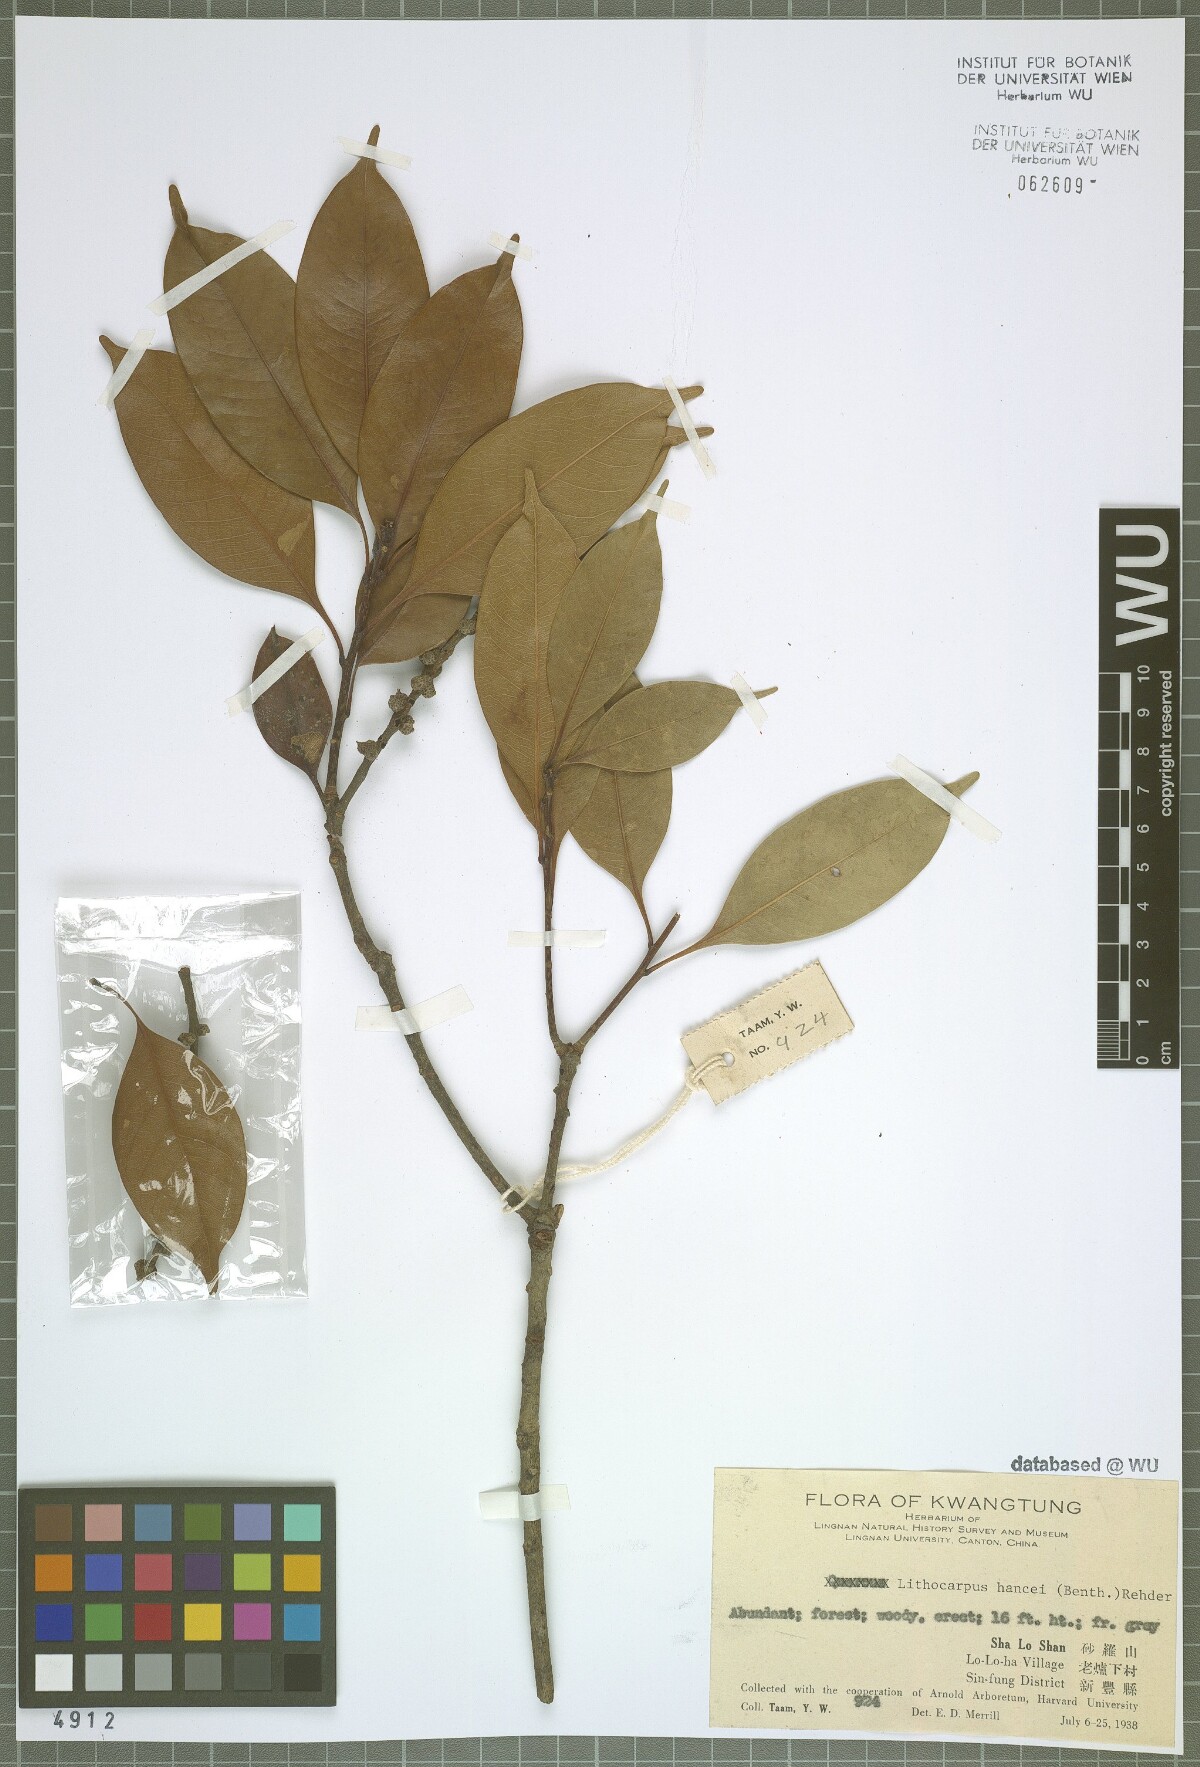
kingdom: Plantae
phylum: Tracheophyta
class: Magnoliopsida
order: Fagales
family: Fagaceae
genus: Lithocarpus
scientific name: Lithocarpus hancei
